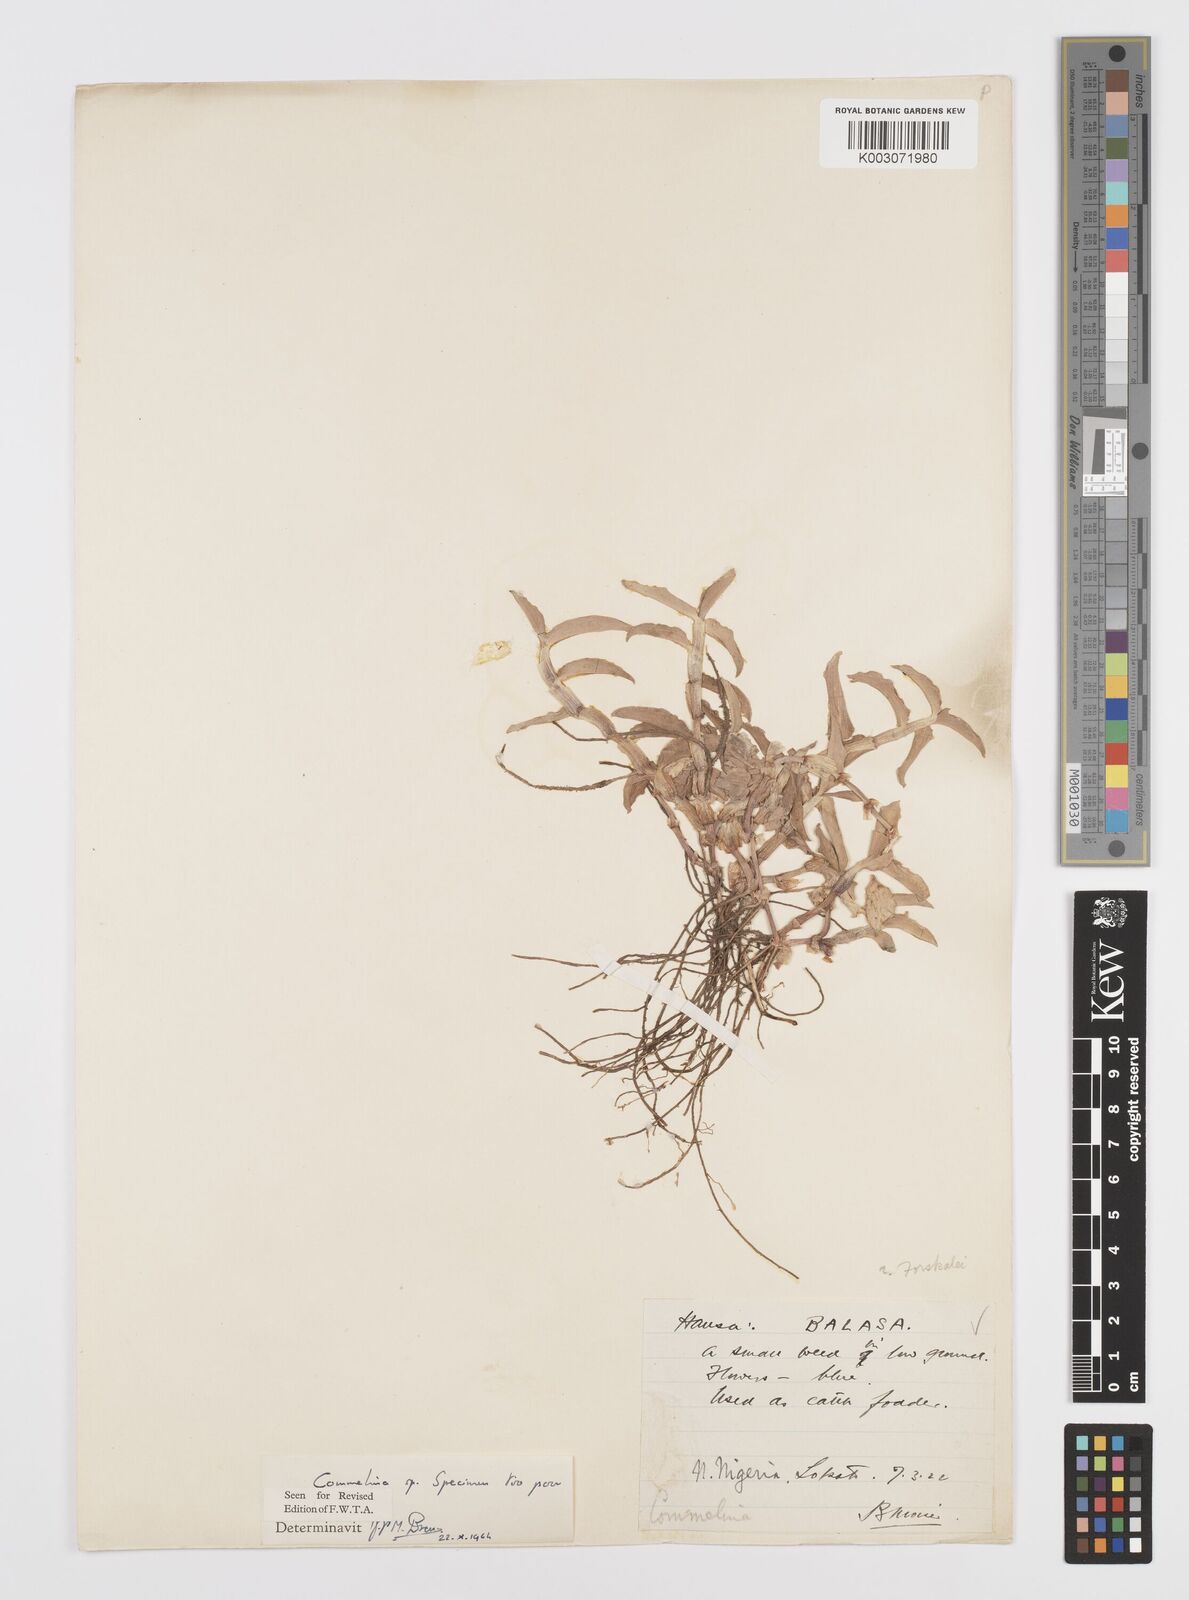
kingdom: Plantae
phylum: Tracheophyta
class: Liliopsida
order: Commelinales
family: Commelinaceae
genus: Commelina
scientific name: Commelina
